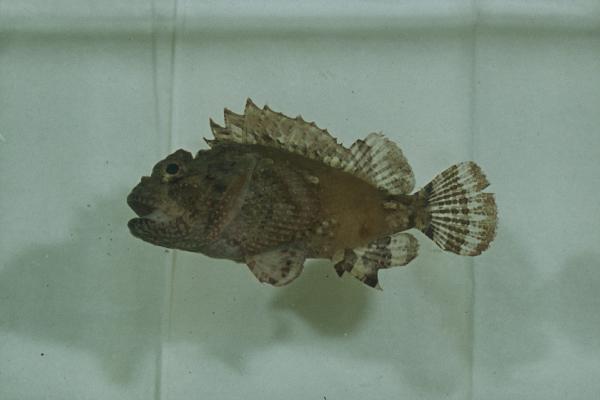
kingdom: Animalia
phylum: Chordata
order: Scorpaeniformes
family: Scorpaenidae
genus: Parascorpaena
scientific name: Parascorpaena mossambica
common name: Mozambique scorpionfish
